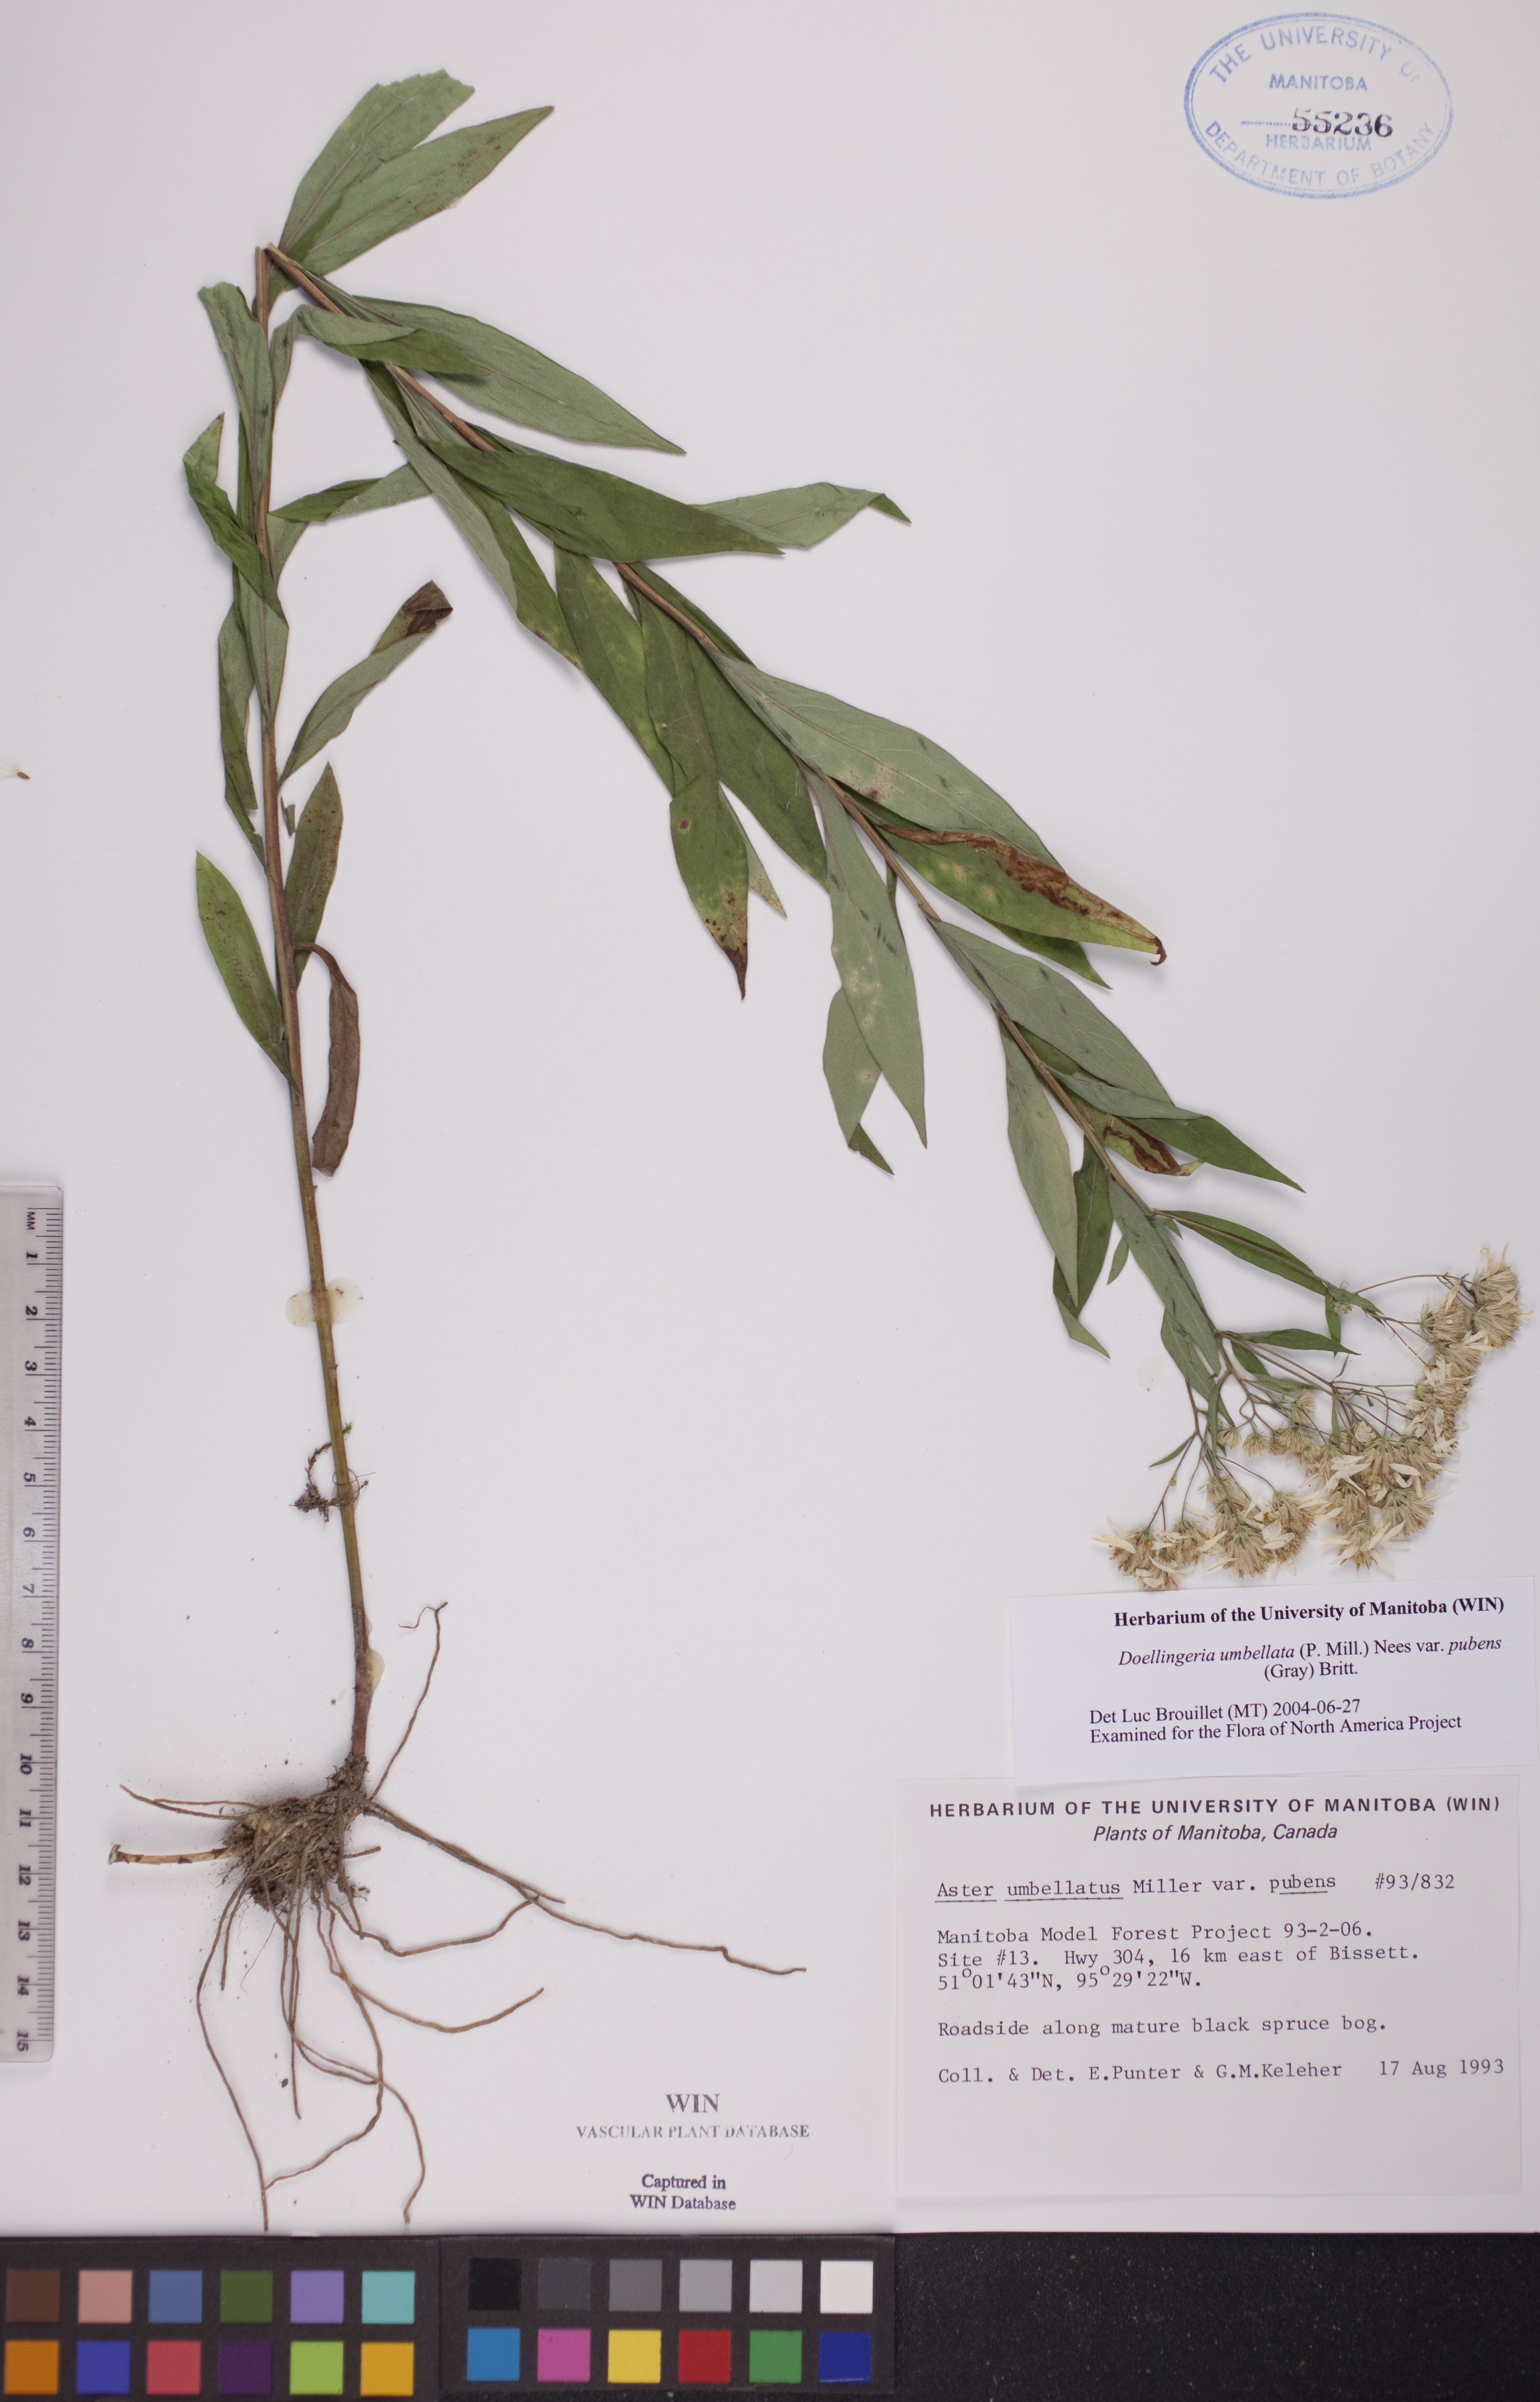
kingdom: Plantae
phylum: Tracheophyta
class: Magnoliopsida
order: Asterales
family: Asteraceae
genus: Doellingeria
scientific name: Doellingeria umbellata
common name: Flat-top white aster
